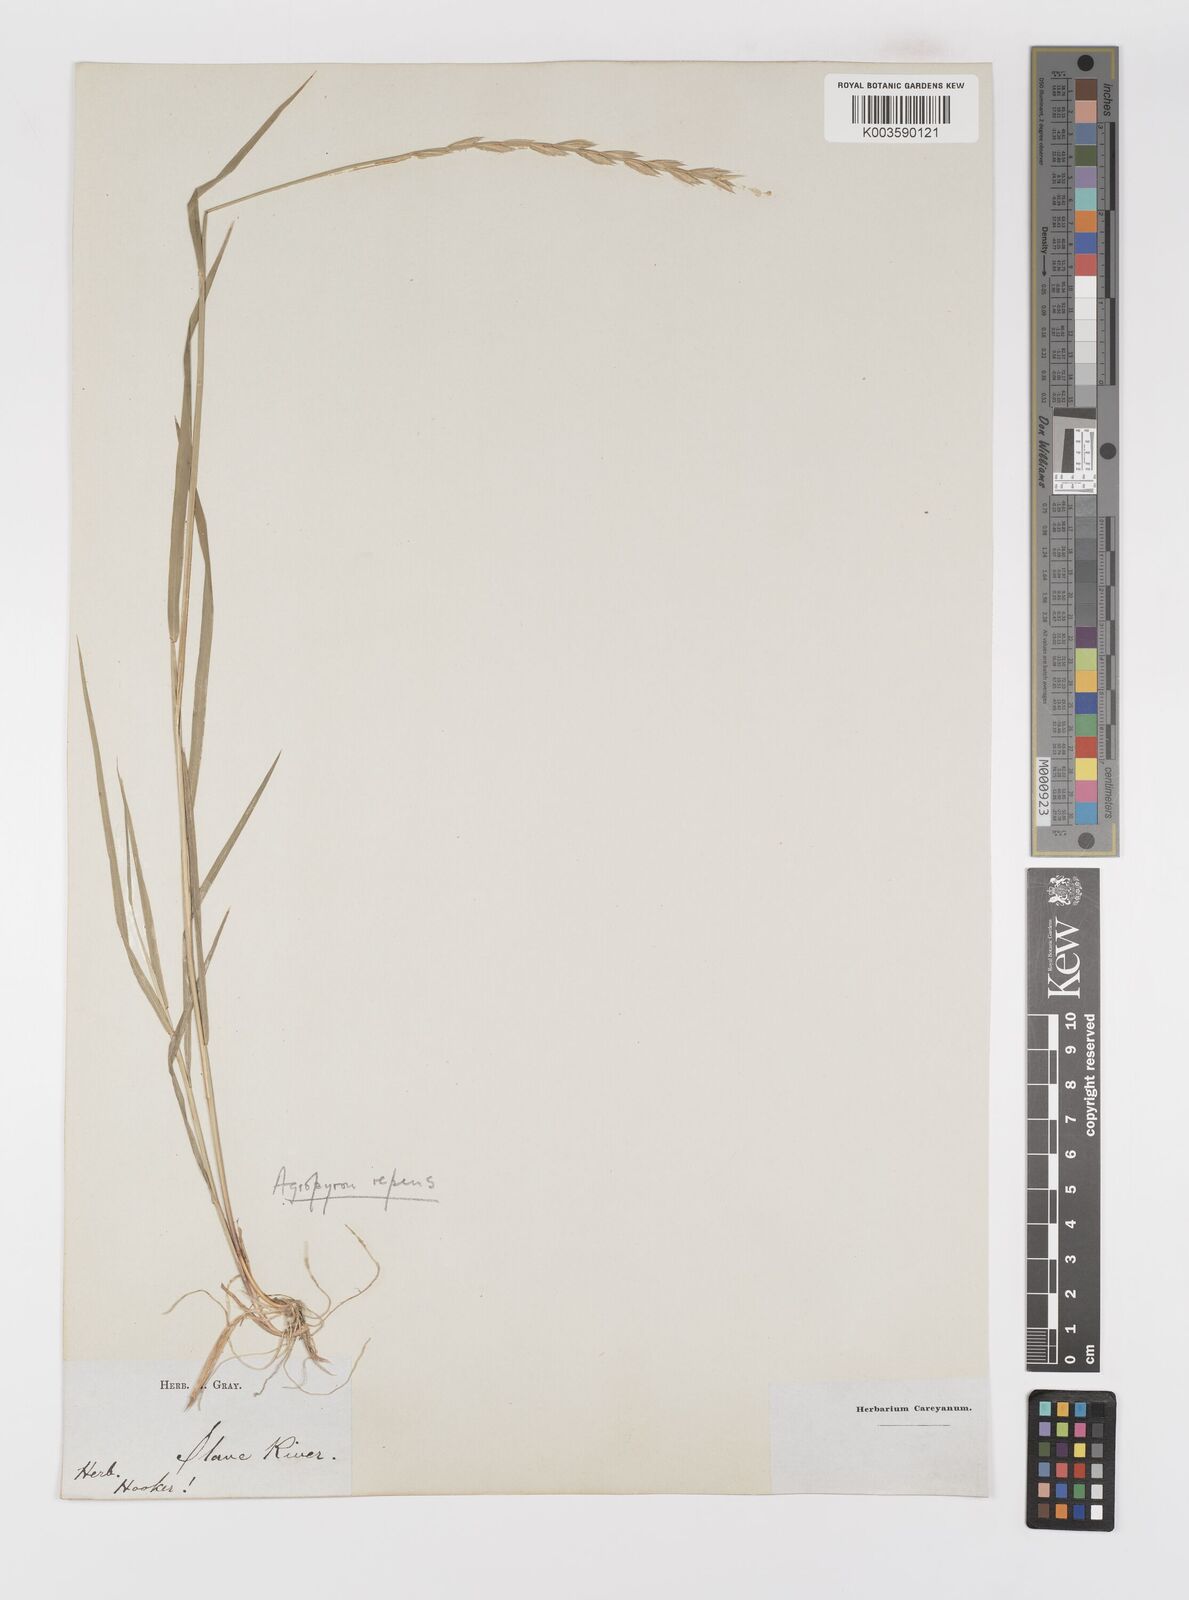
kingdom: Plantae
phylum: Tracheophyta
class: Liliopsida
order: Poales
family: Poaceae
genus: Elymus
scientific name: Elymus repens
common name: Quackgrass
